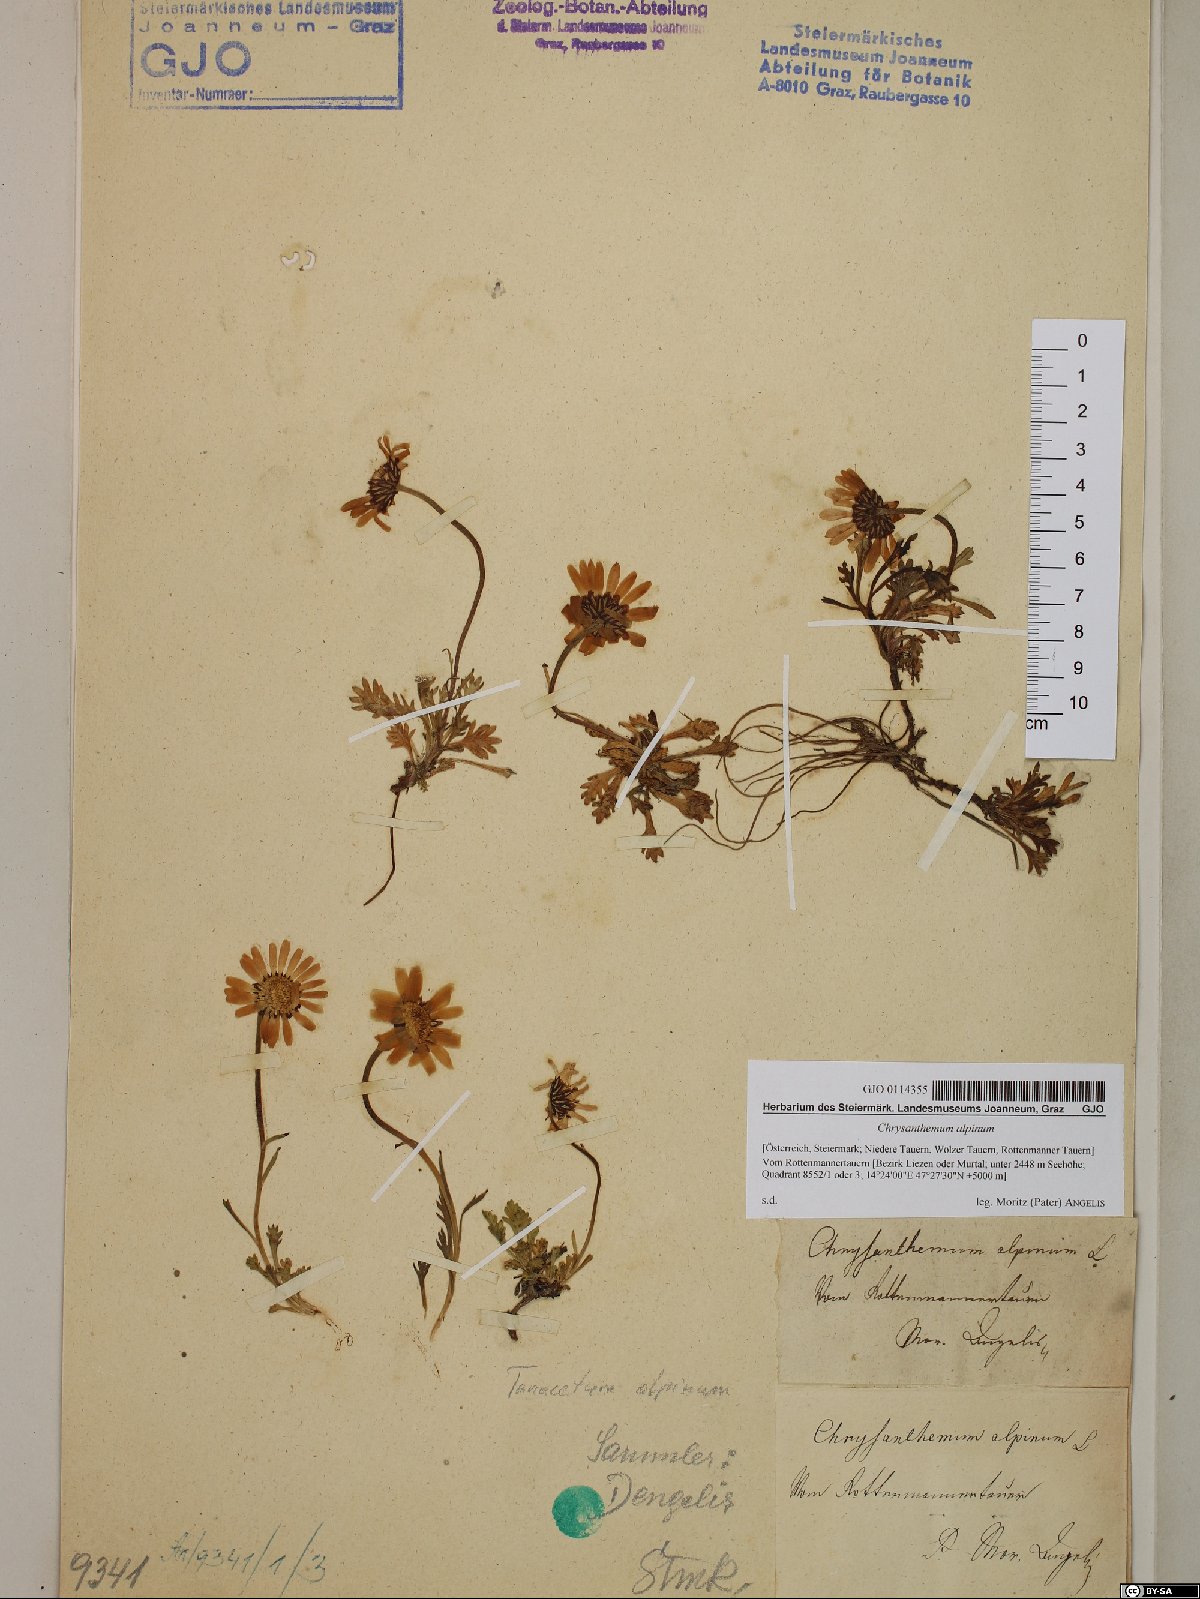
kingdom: Plantae
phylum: Tracheophyta
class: Magnoliopsida
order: Asterales
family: Asteraceae
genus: Leucanthemopsis
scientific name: Leucanthemopsis alpina
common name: Alpine moon daisy
